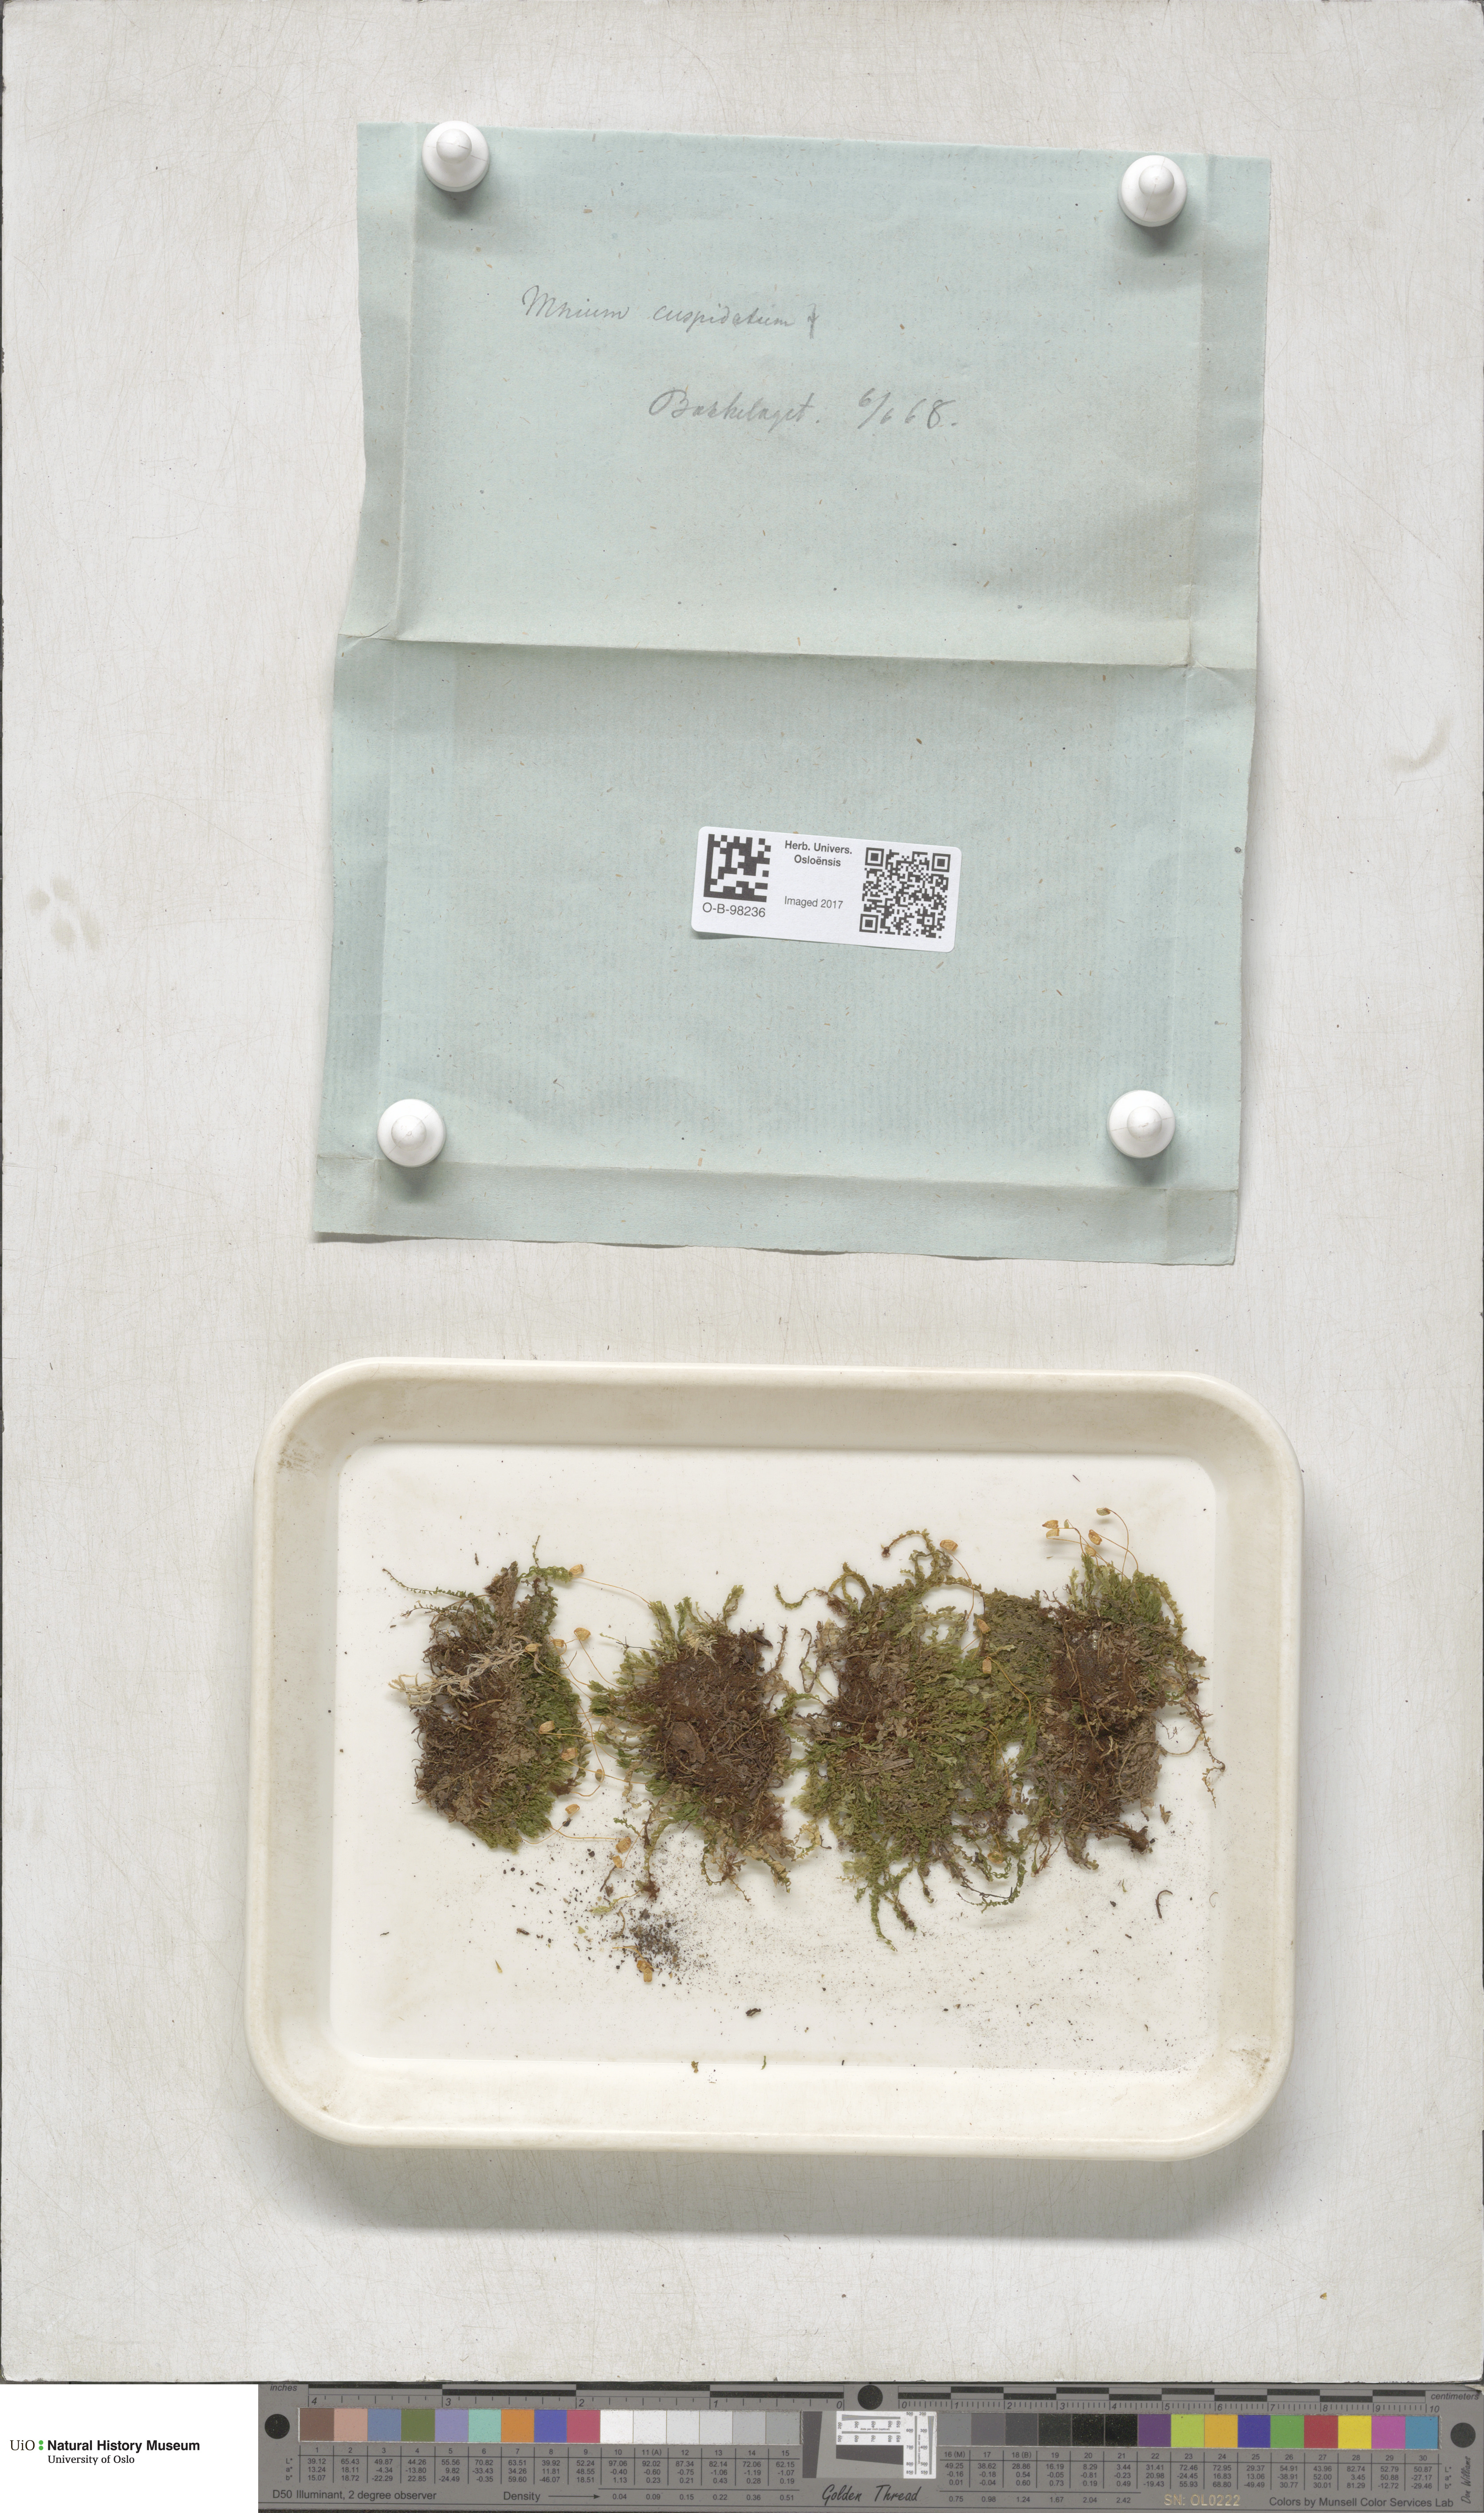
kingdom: Plantae
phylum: Bryophyta
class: Bryopsida
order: Bryales
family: Mniaceae
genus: Plagiomnium
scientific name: Plagiomnium cuspidatum
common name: Woodsy leafy moss
